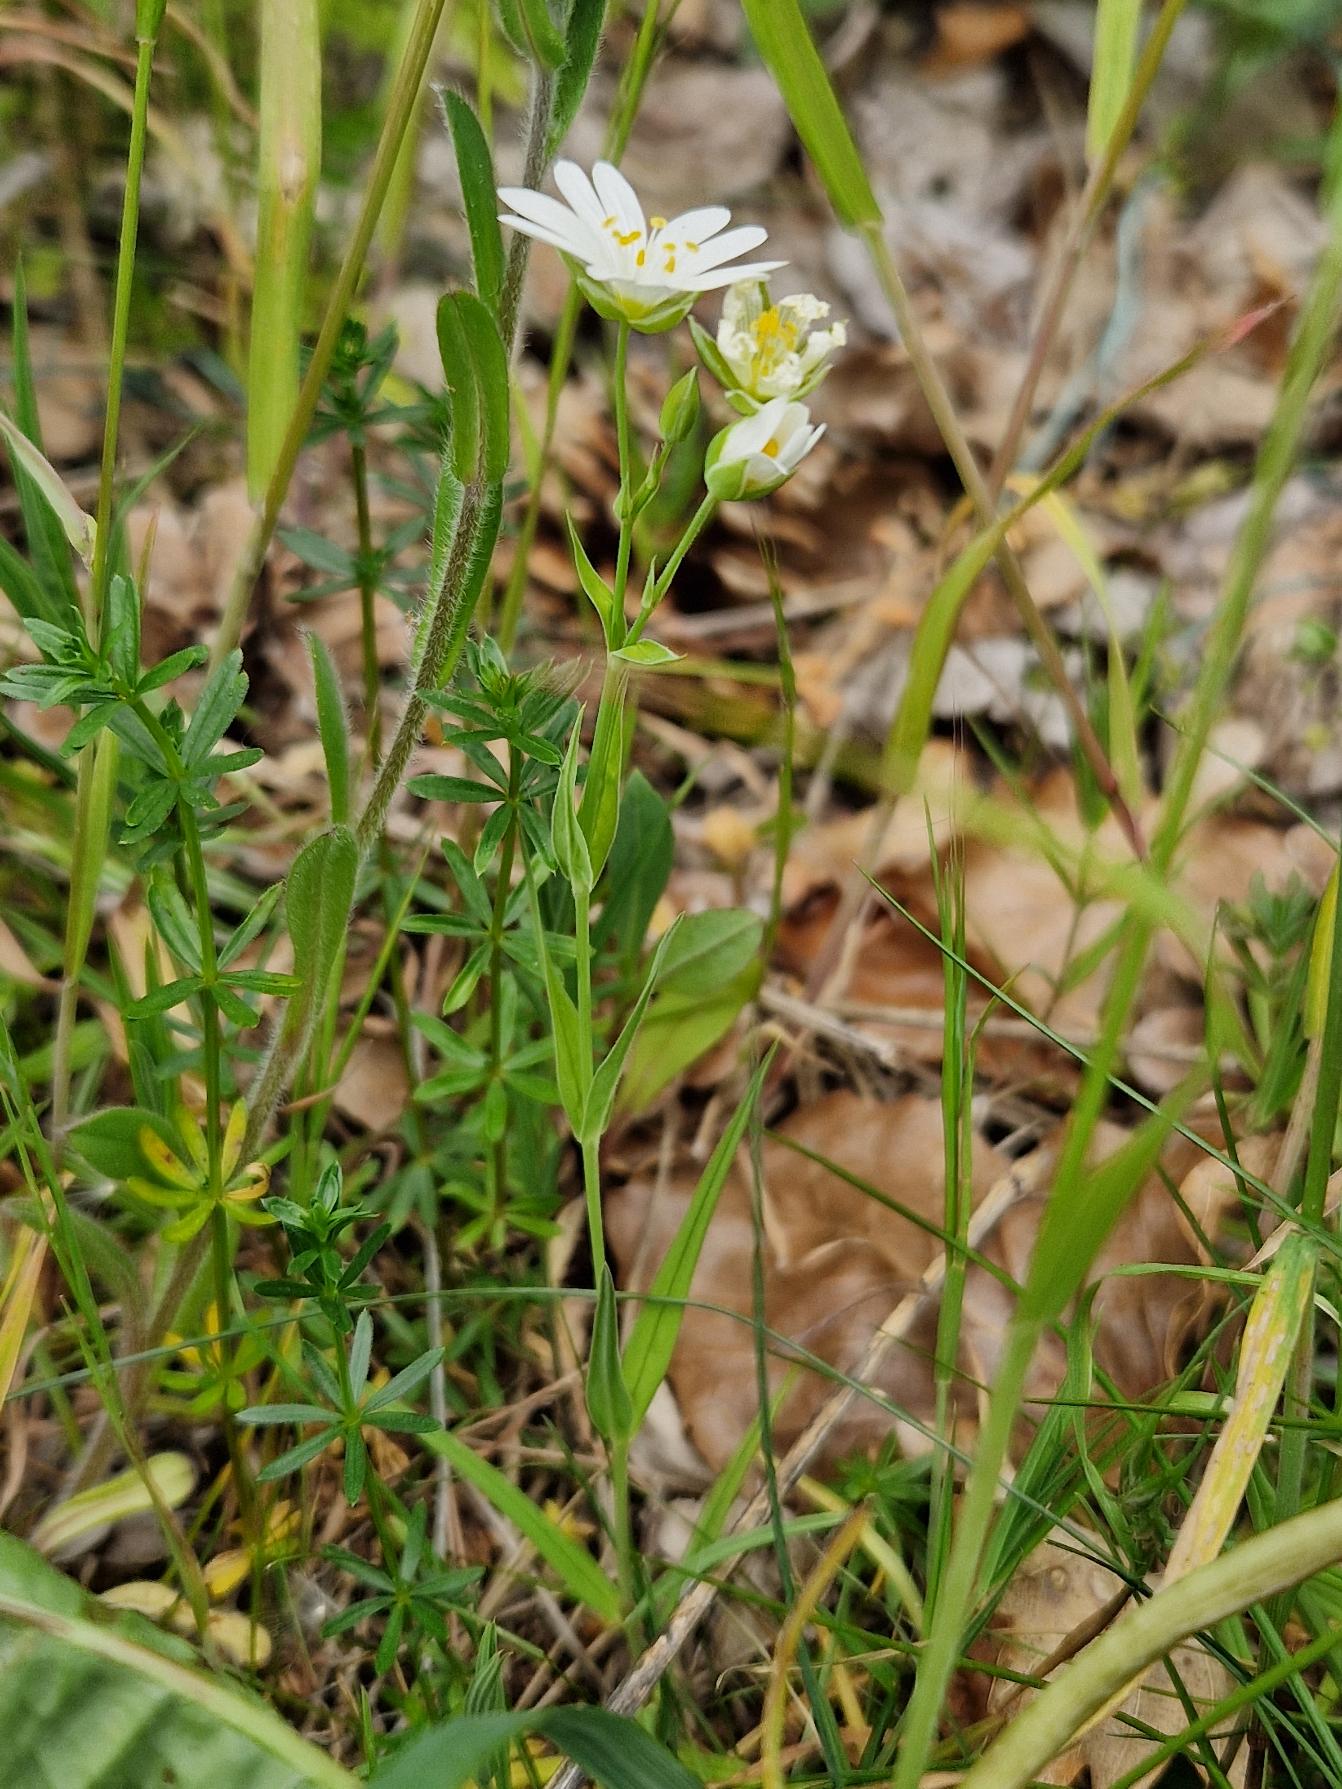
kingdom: Plantae
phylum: Tracheophyta
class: Magnoliopsida
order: Caryophyllales
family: Caryophyllaceae
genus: Rabelera
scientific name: Rabelera holostea
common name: Stor fladstjerne
